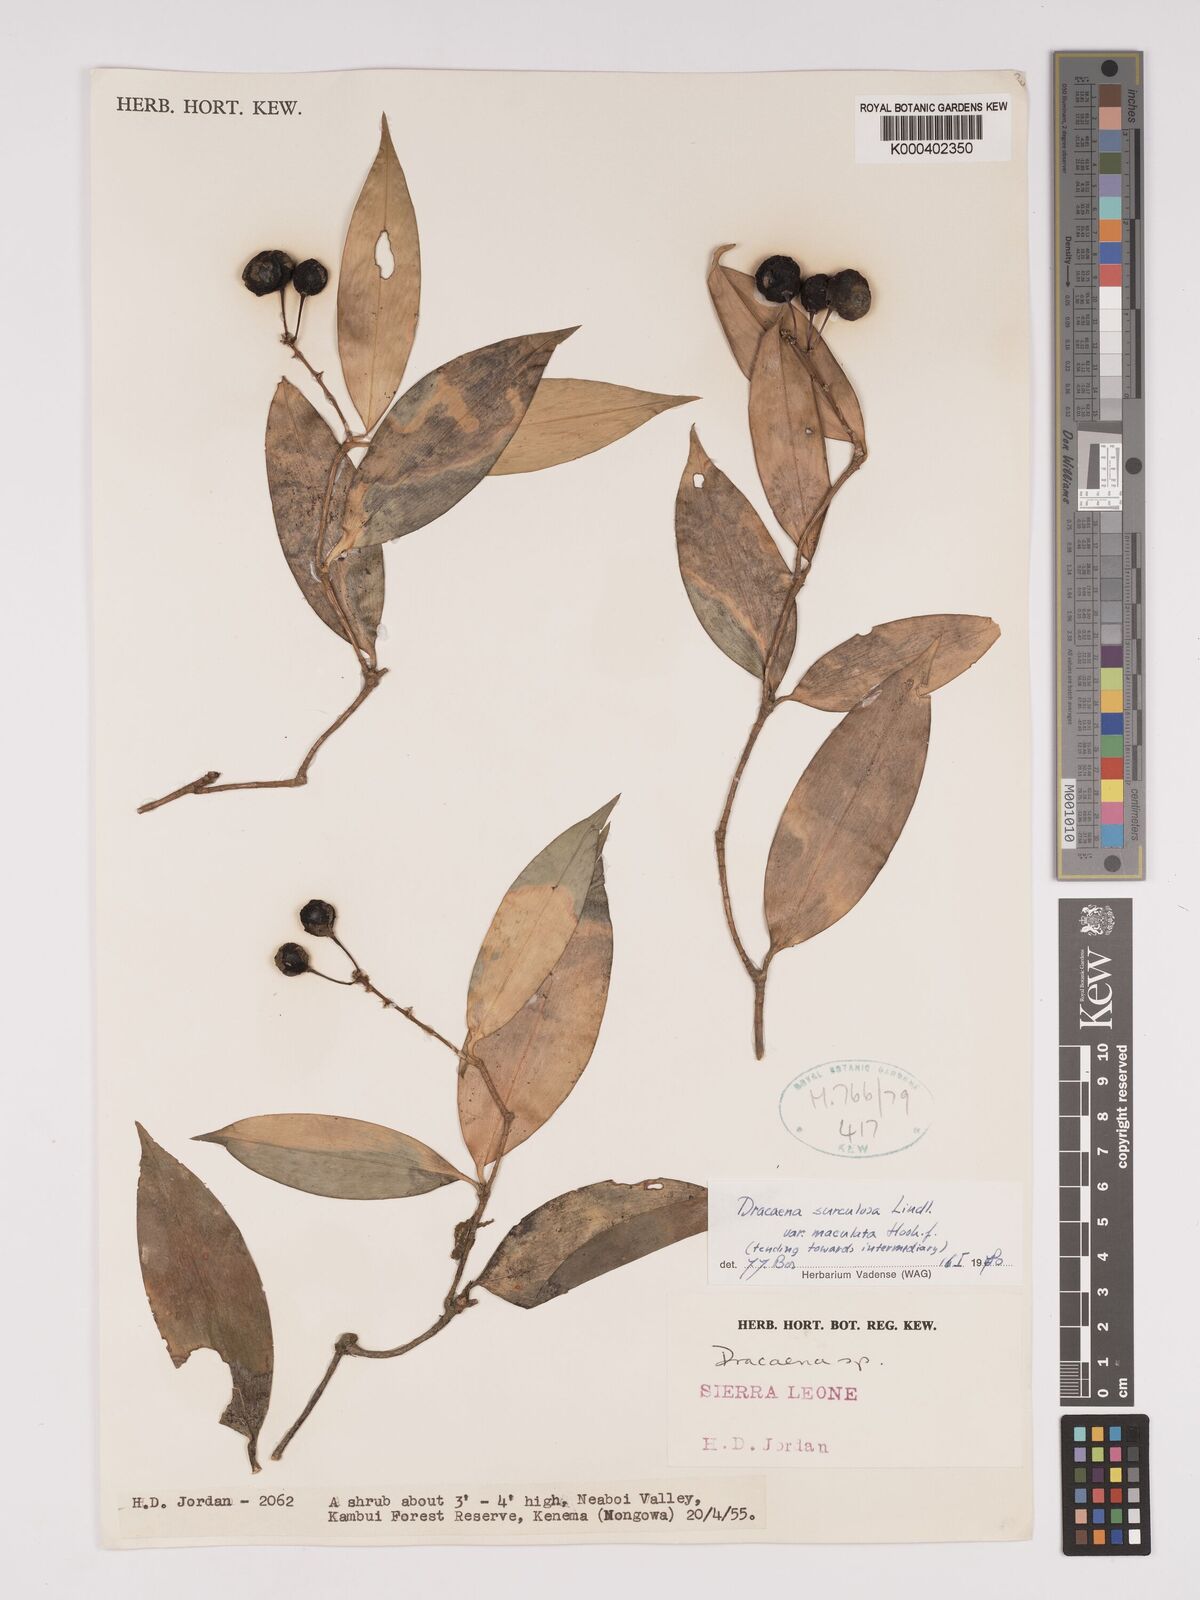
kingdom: Plantae
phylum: Tracheophyta
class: Liliopsida
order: Asparagales
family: Asparagaceae
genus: Dracaena
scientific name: Dracaena surculosa
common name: Spotted dracaena
